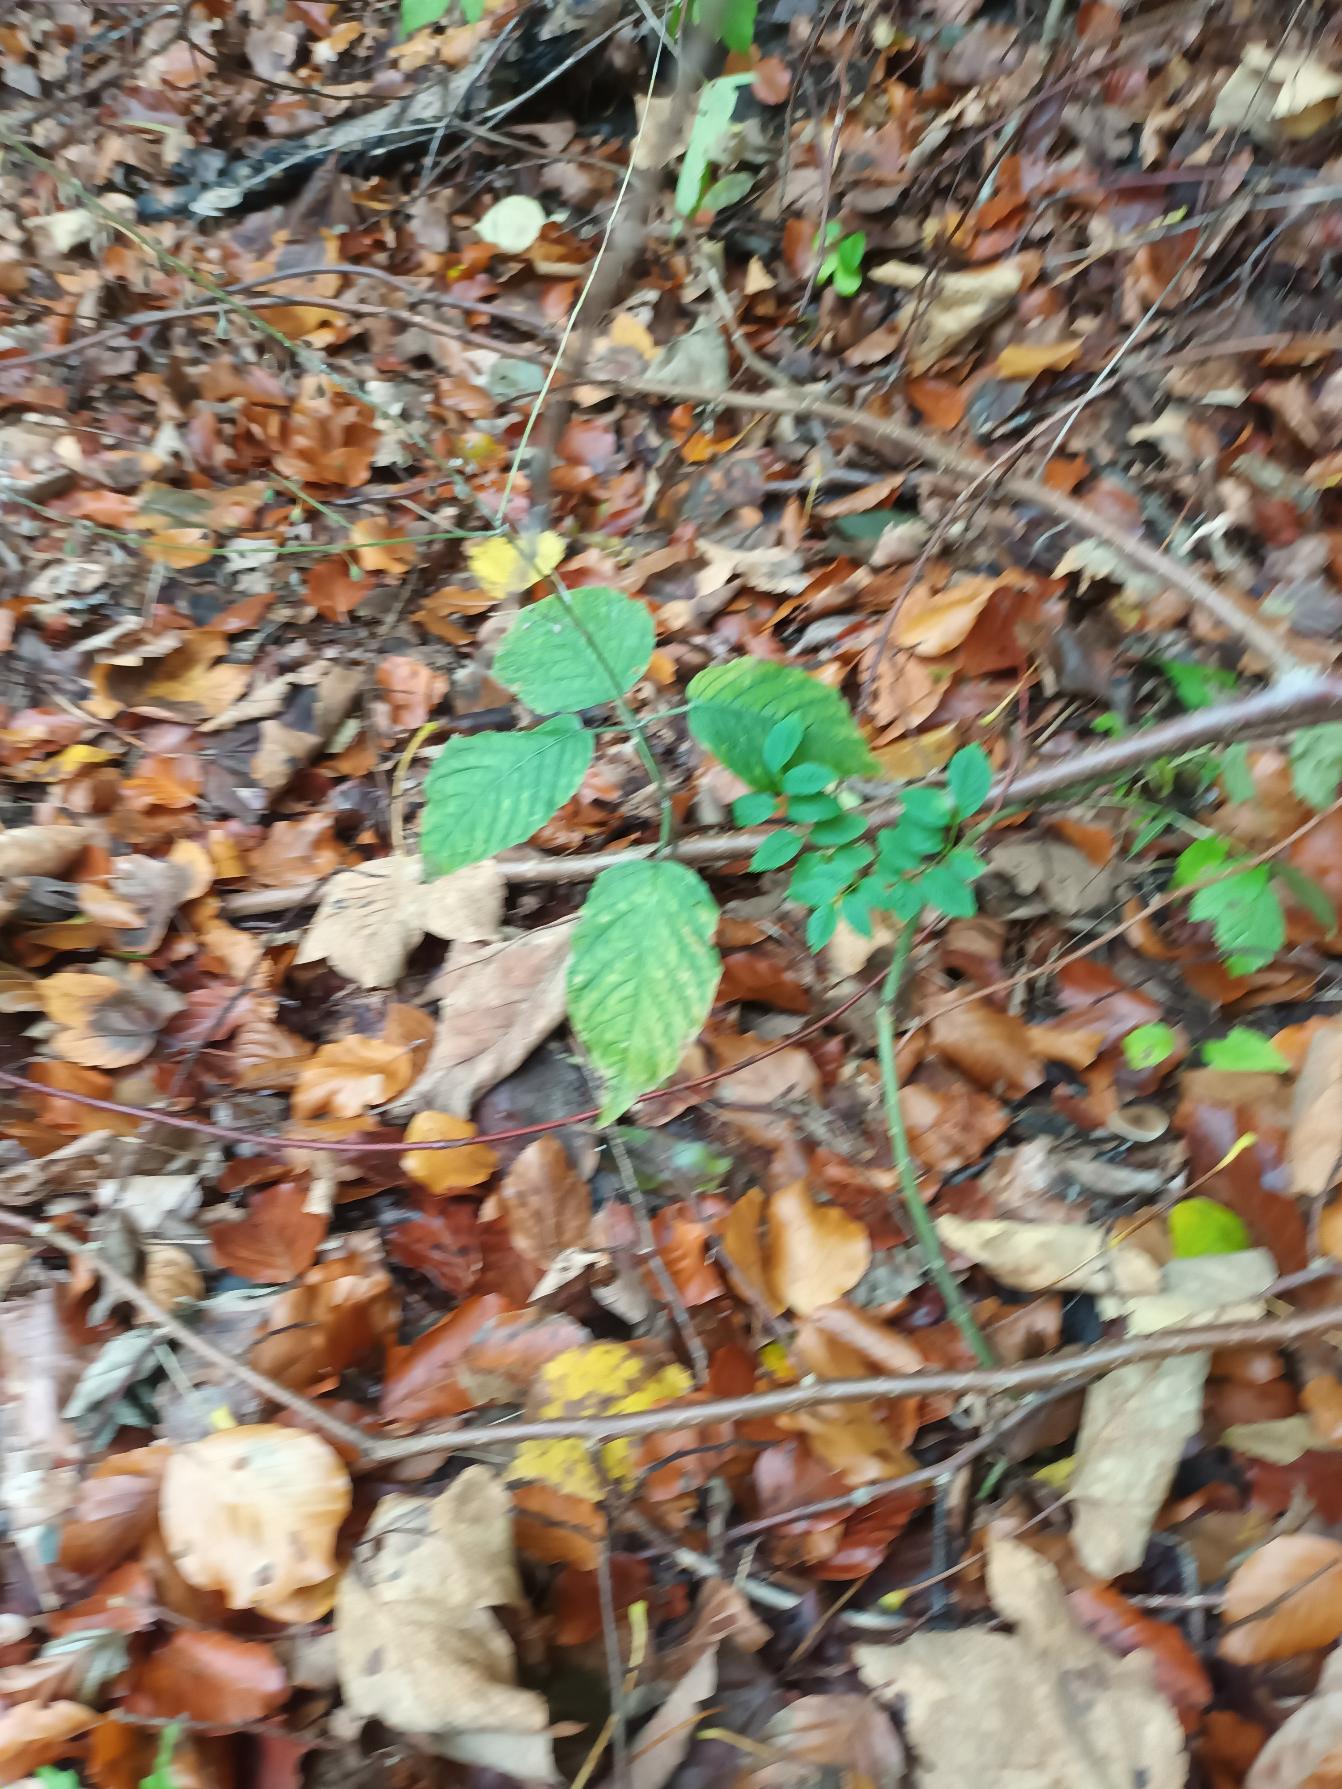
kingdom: Plantae
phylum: Tracheophyta
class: Magnoliopsida
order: Myrtales
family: Onagraceae
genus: Circaea
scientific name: Circaea lutetiana
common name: Dunet steffensurt
